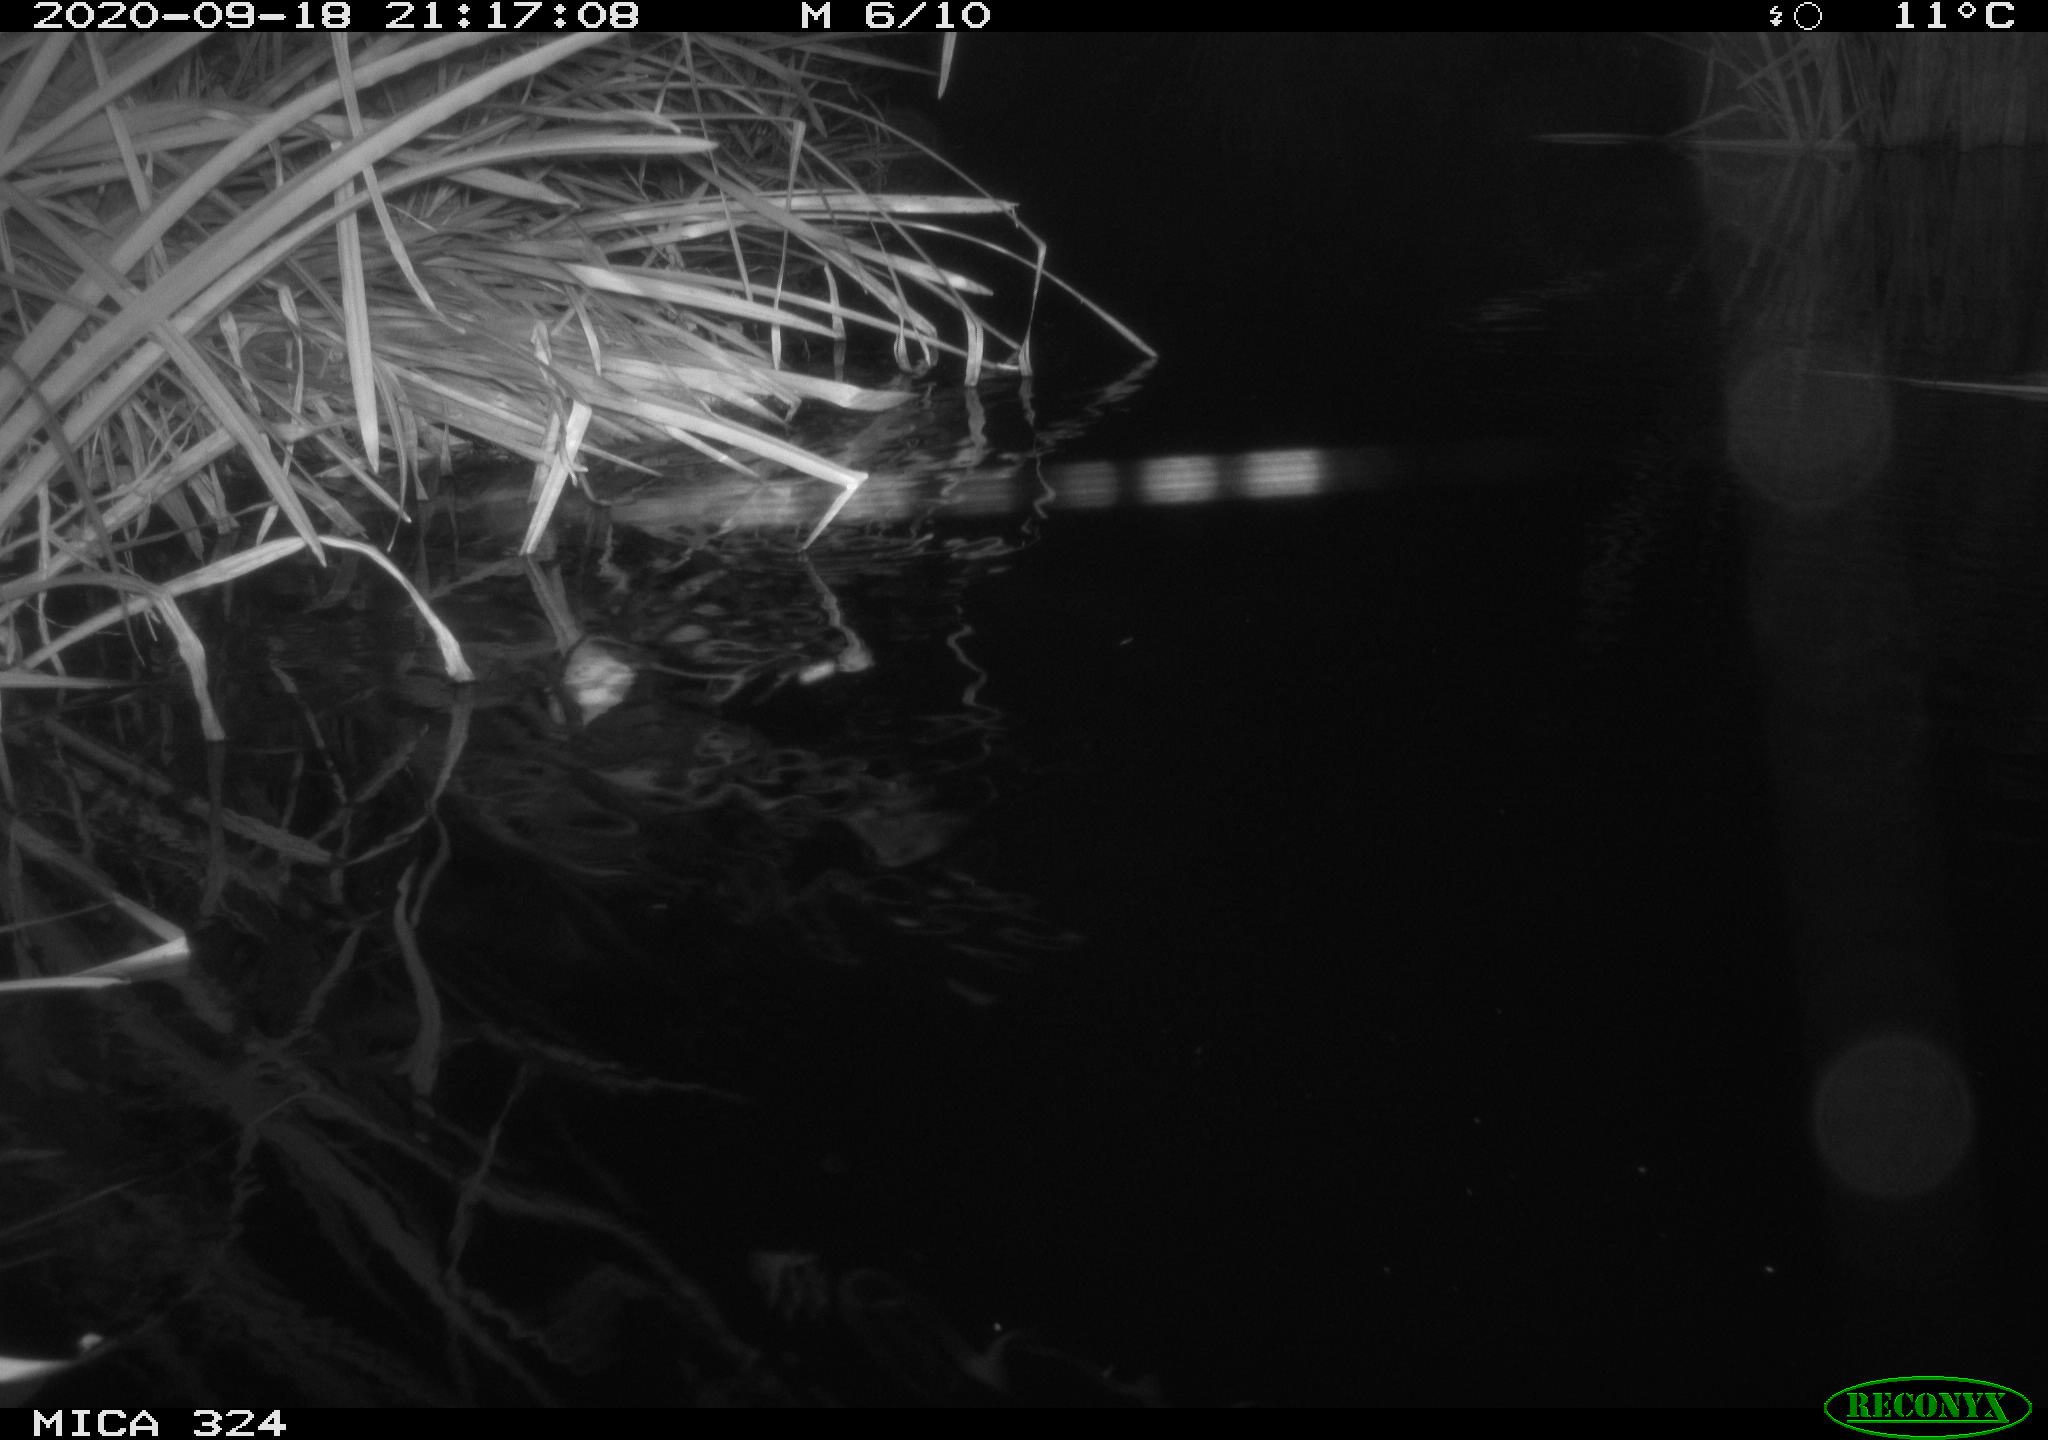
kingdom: Animalia
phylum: Chordata
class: Mammalia
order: Rodentia
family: Cricetidae
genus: Ondatra
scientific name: Ondatra zibethicus
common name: Muskrat
